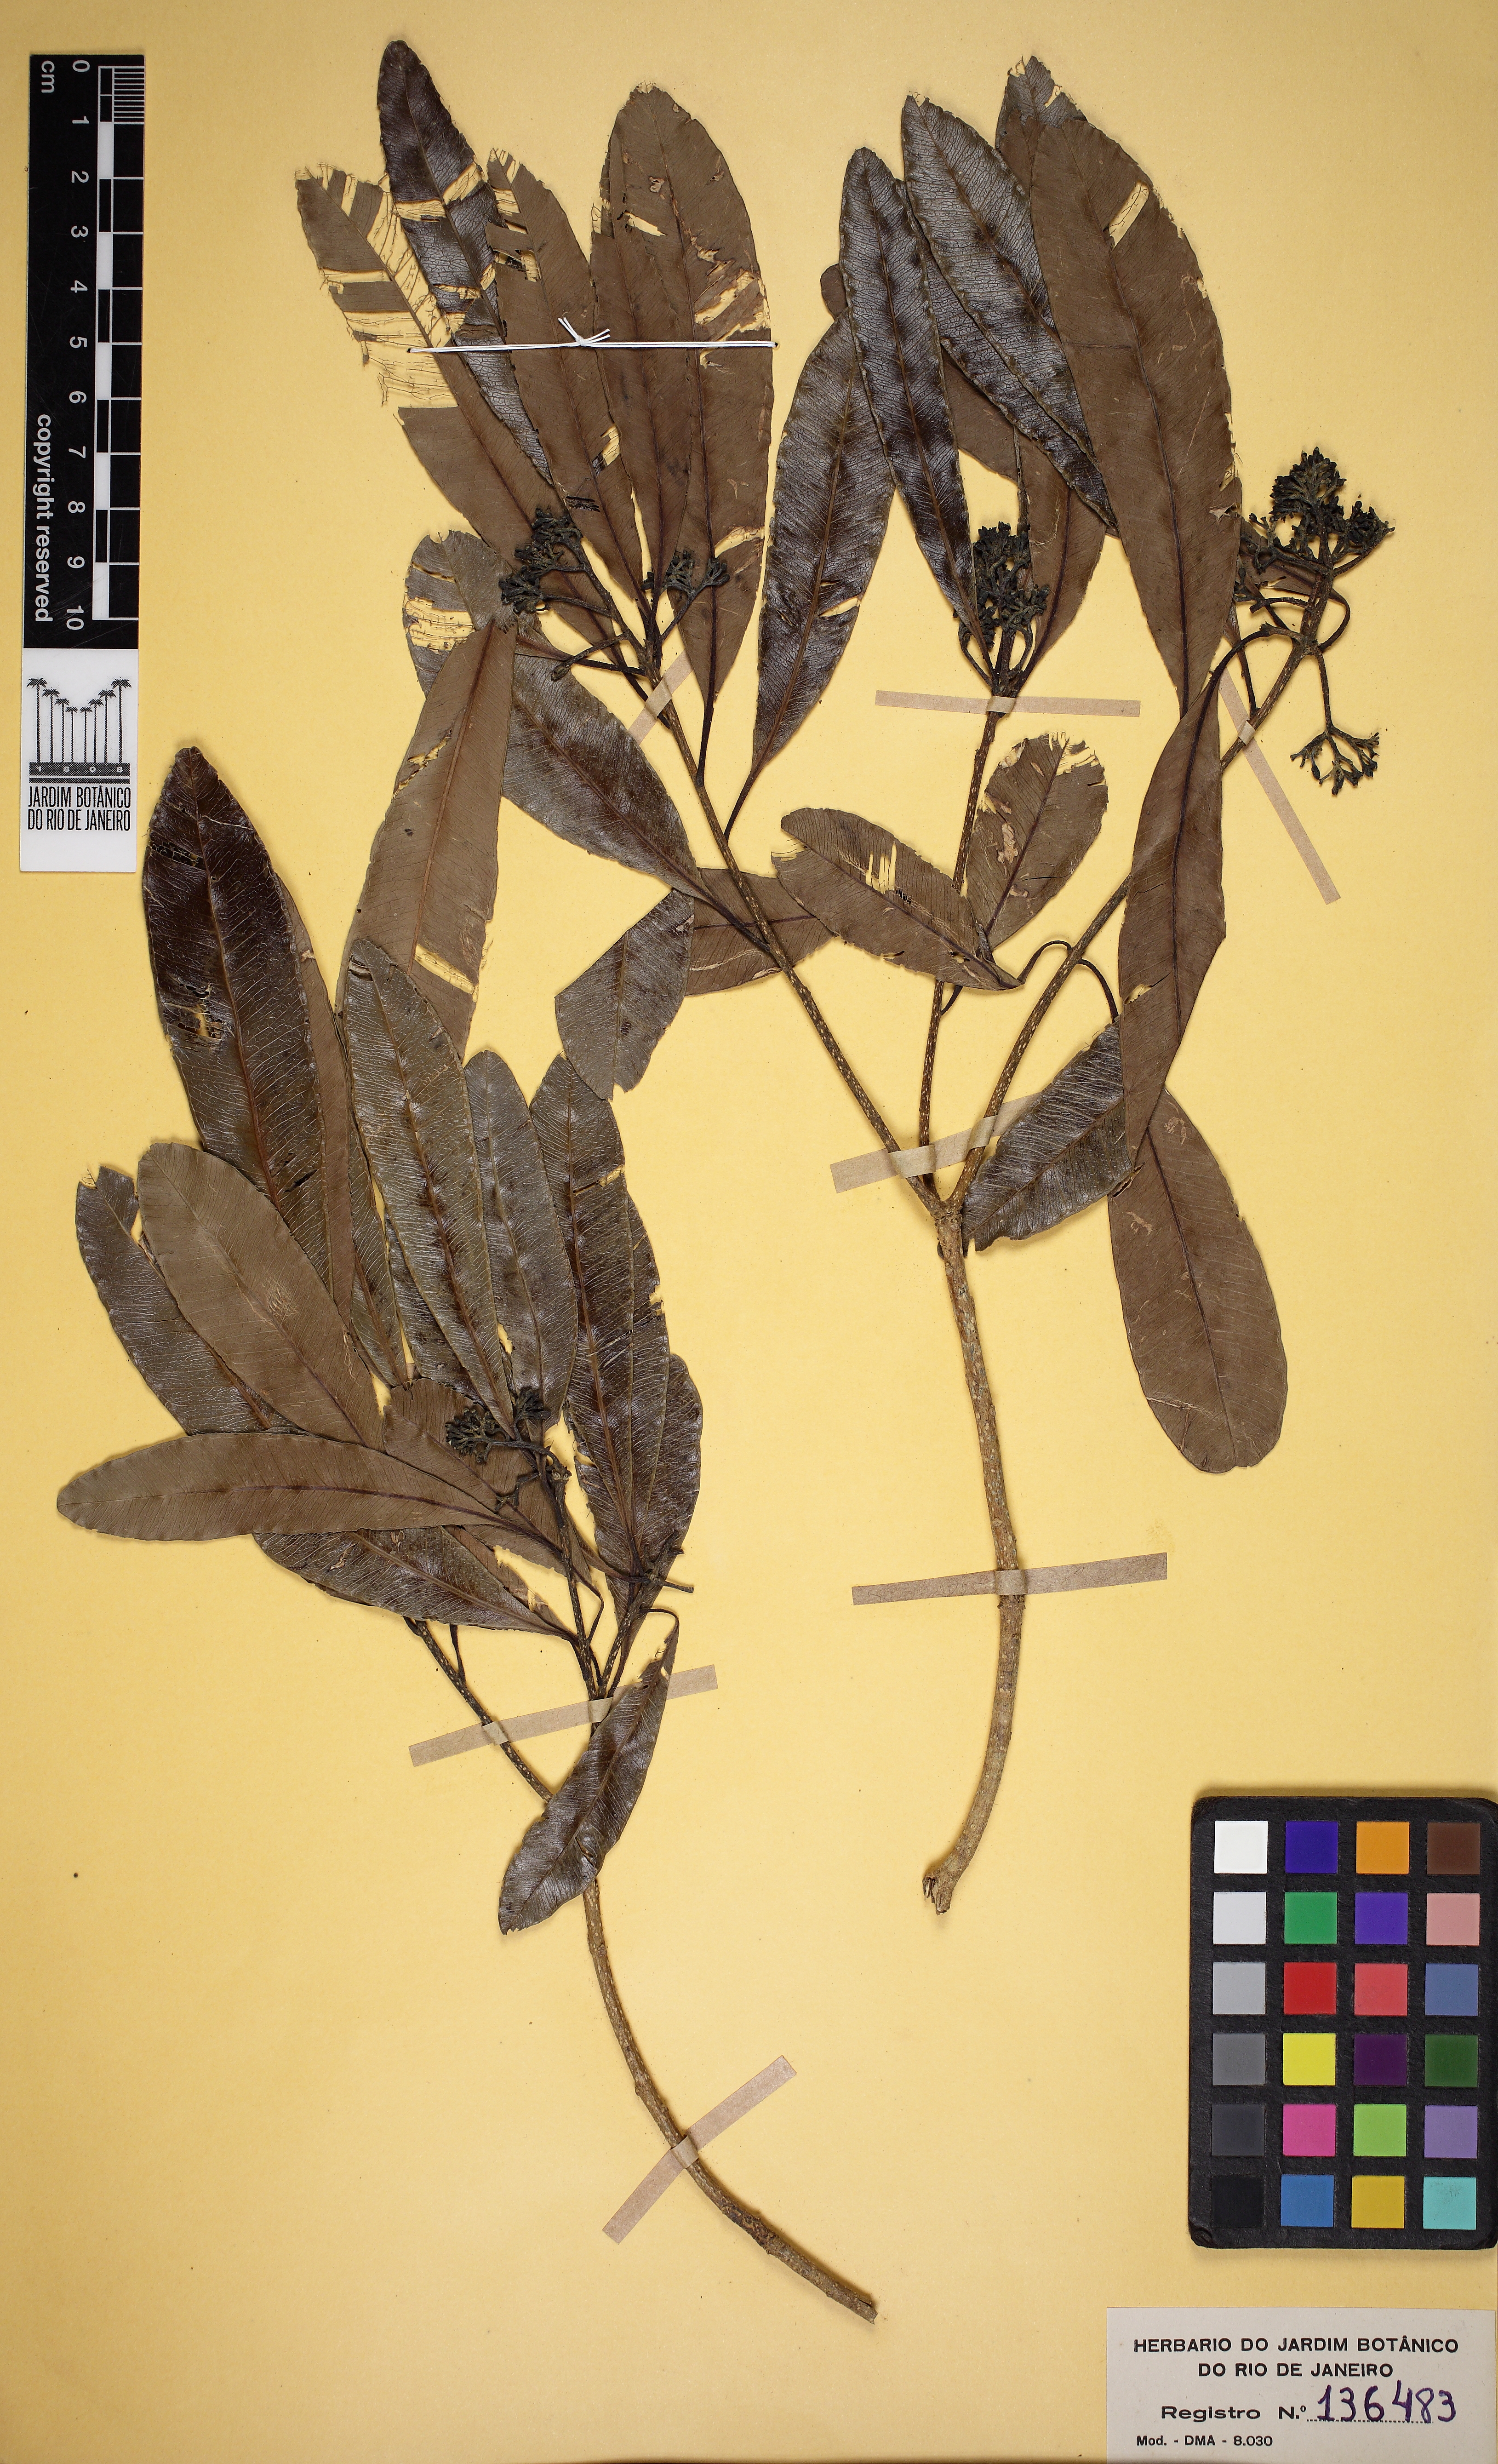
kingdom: Plantae
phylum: Tracheophyta
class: Magnoliopsida
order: Gentianales
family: Apocynaceae
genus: Aspidosperma
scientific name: Aspidosperma polyneuron
